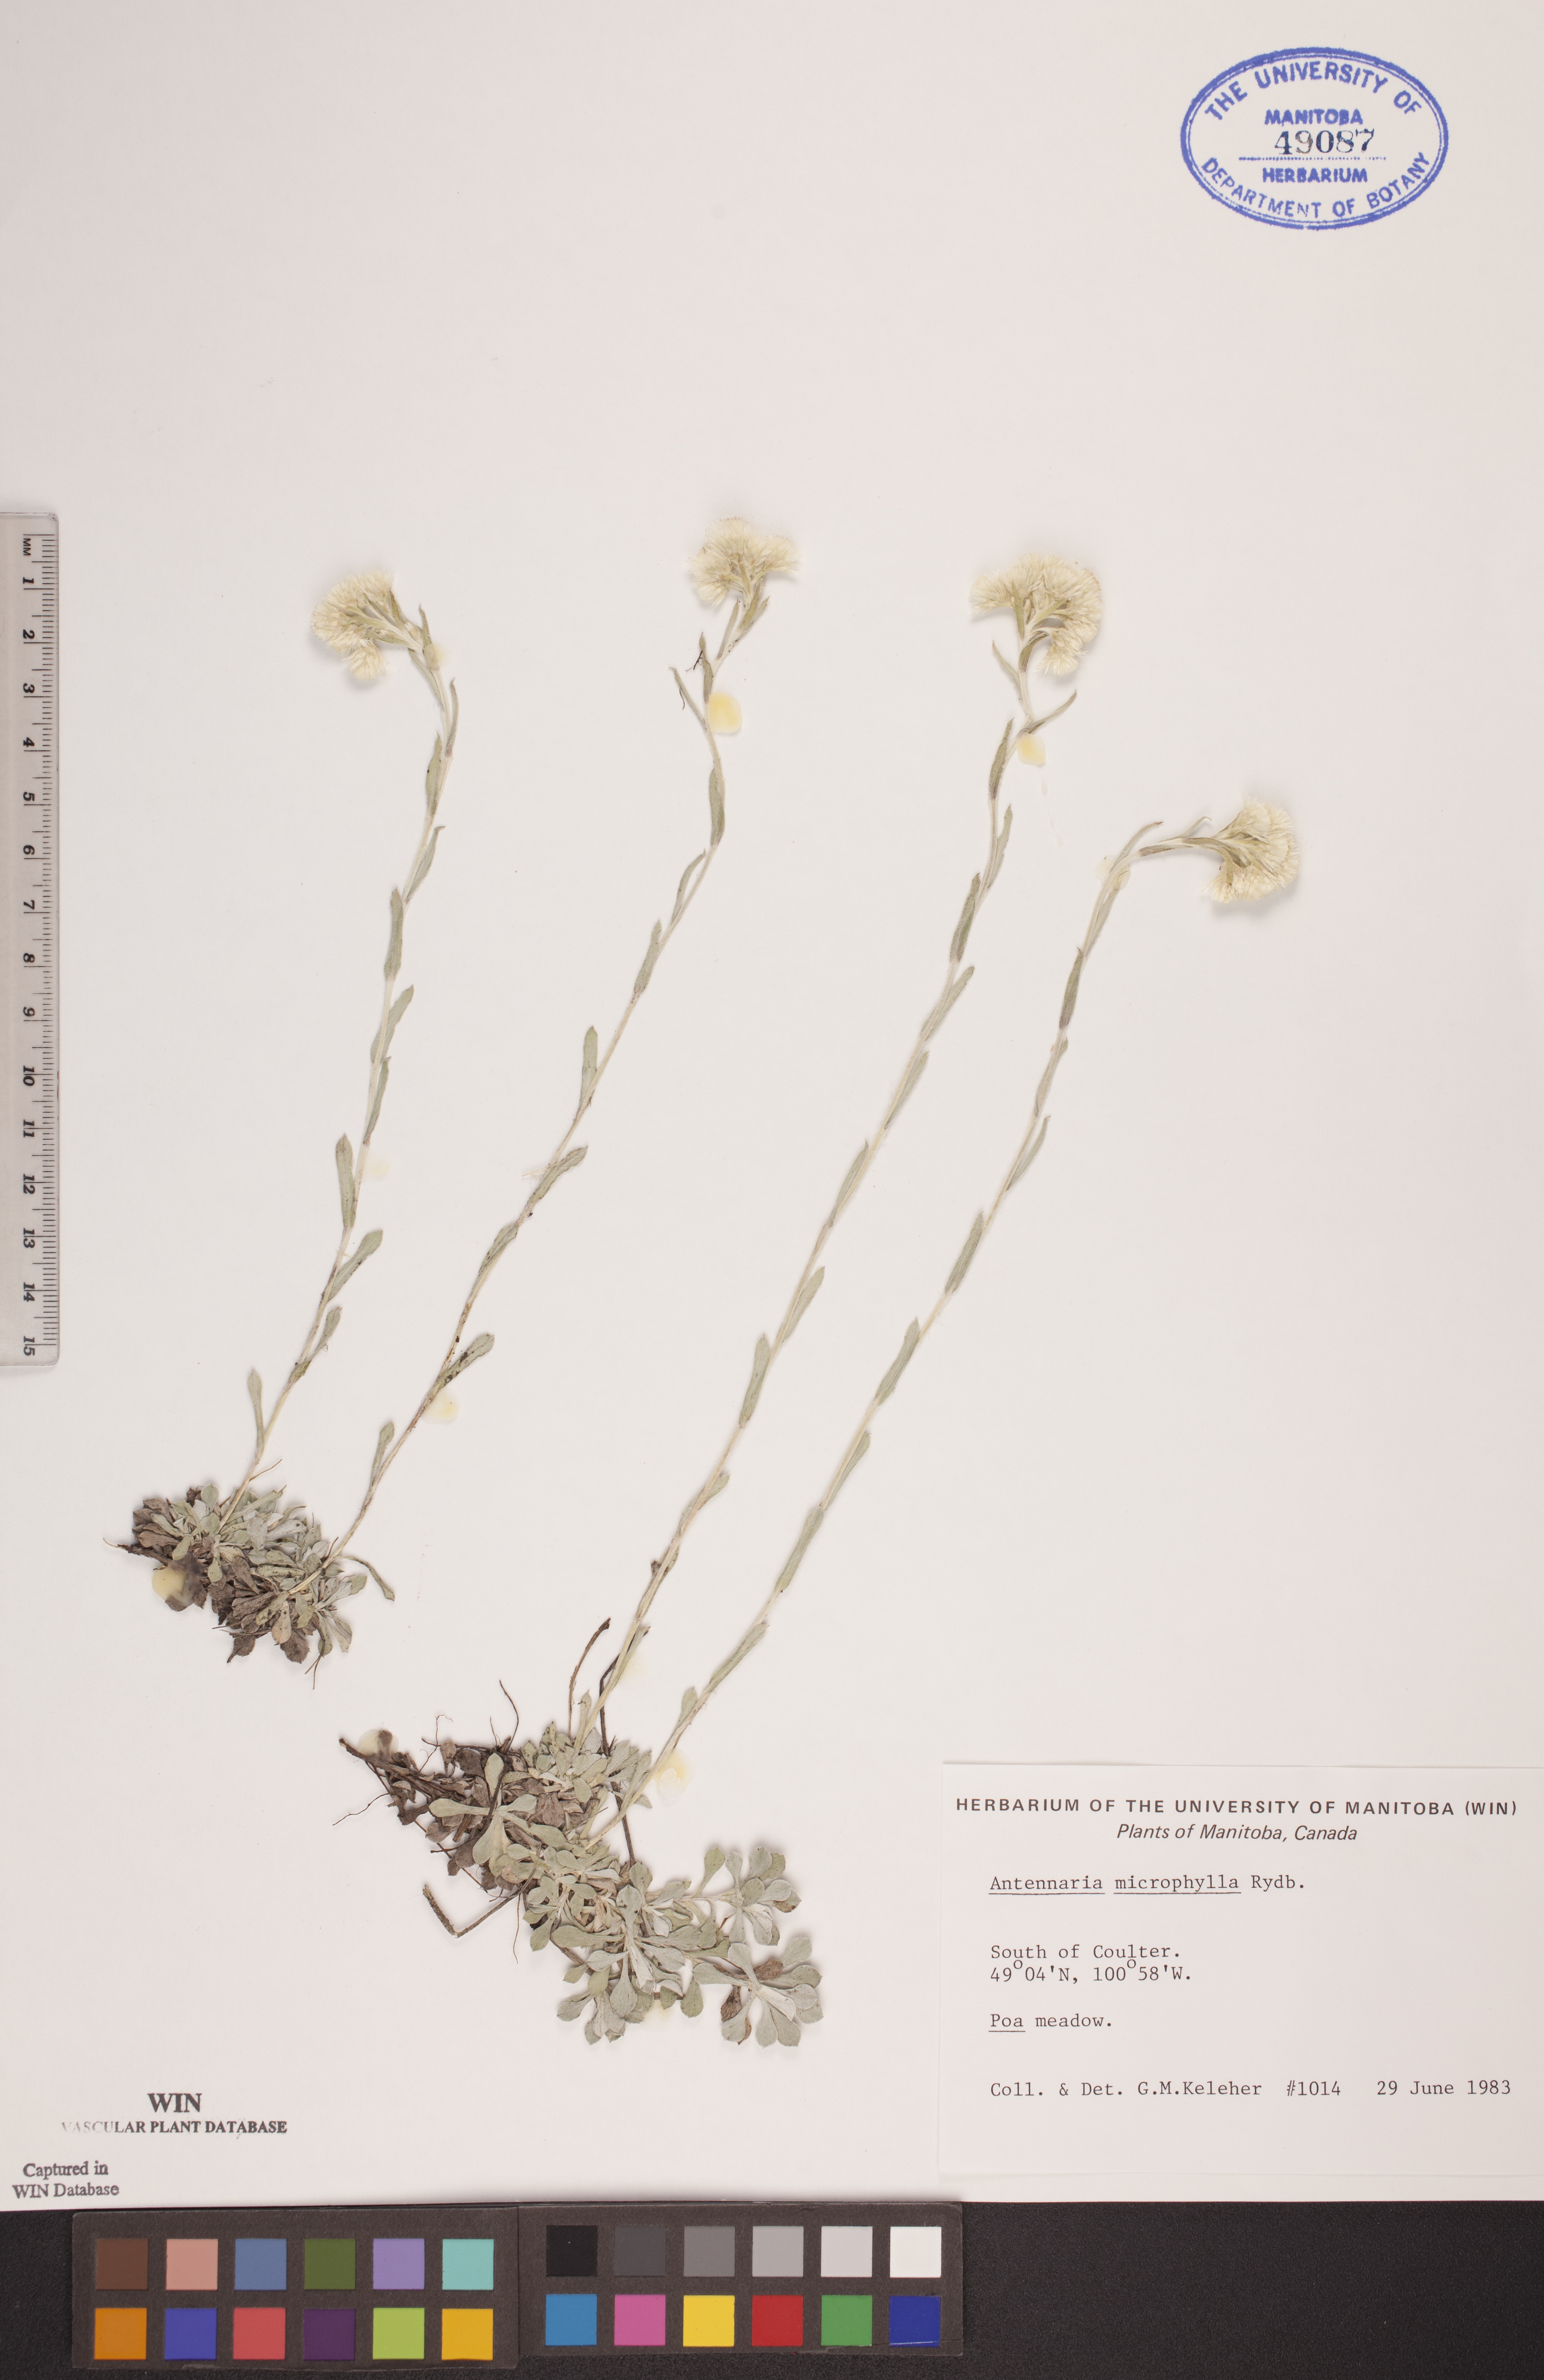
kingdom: Plantae
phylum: Tracheophyta
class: Magnoliopsida
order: Asterales
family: Asteraceae
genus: Antennaria
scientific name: Antennaria microphylla
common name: Littleleaf pussytoes
